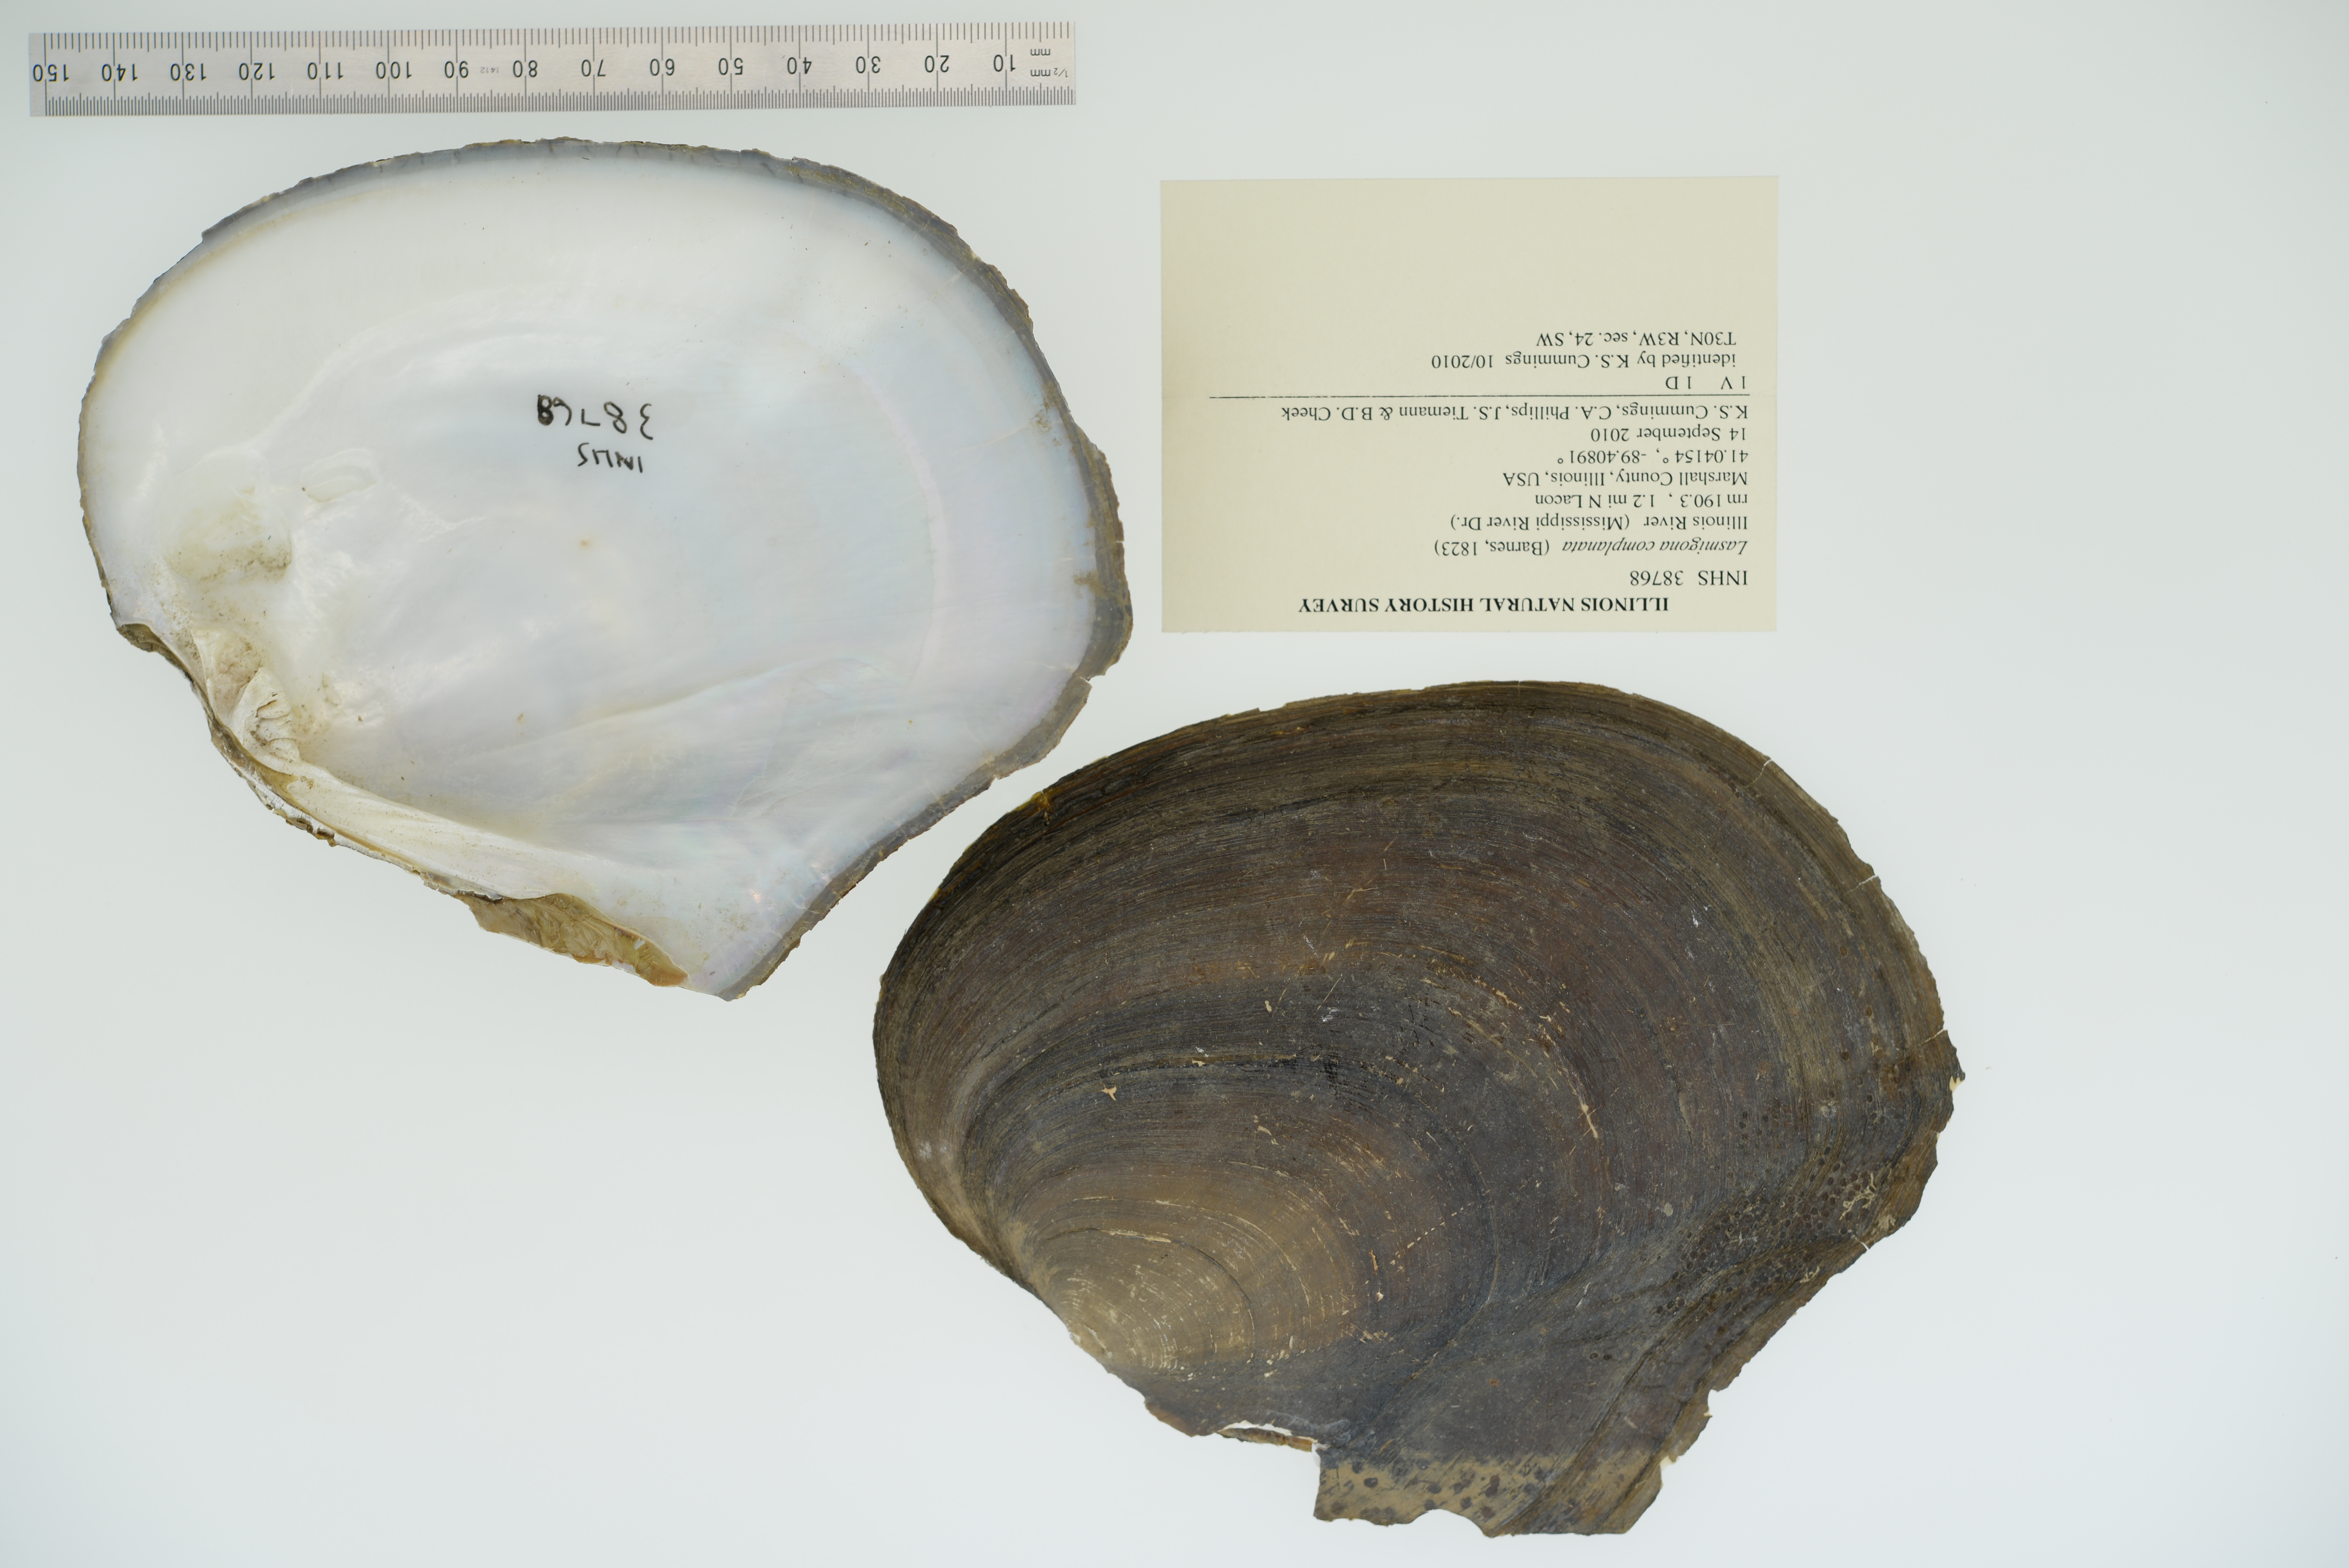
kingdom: Animalia
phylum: Mollusca
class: Bivalvia
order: Unionida
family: Unionidae
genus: Lasmigona
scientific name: Lasmigona complanata
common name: White heelsplitter
